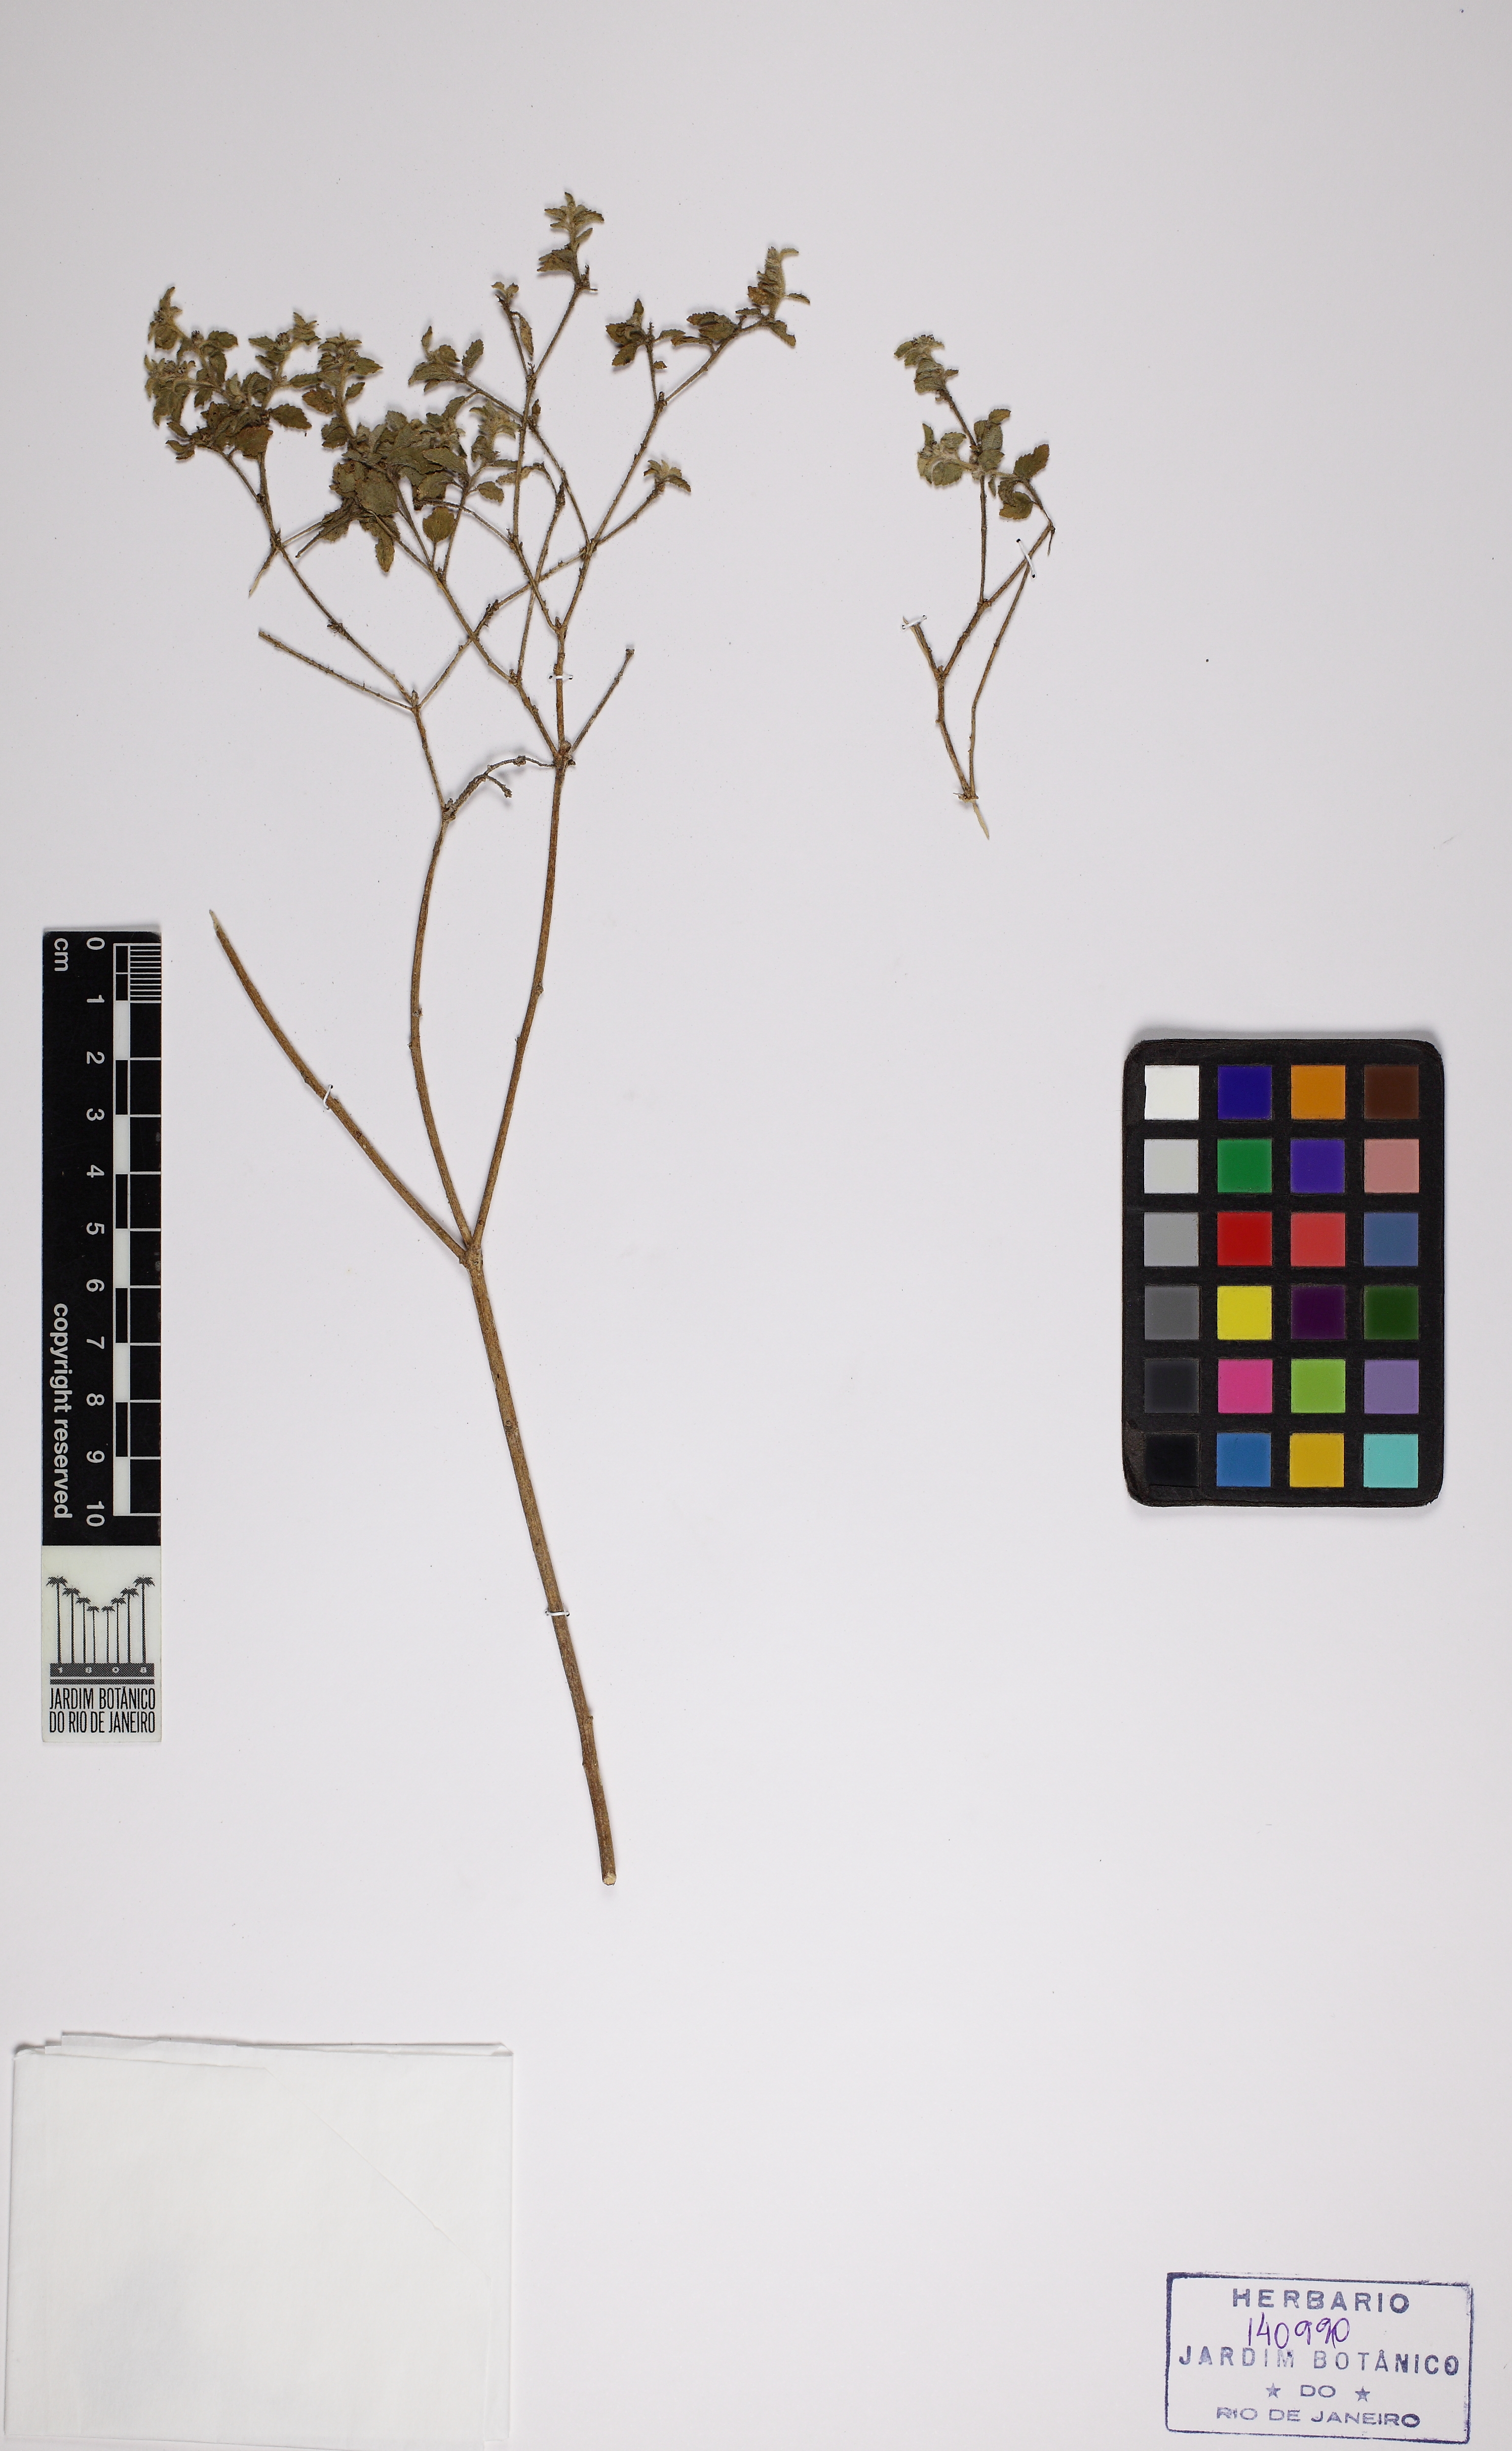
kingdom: Plantae
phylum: Tracheophyta
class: Magnoliopsida
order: Malpighiales
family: Euphorbiaceae
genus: Croton
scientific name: Croton glandulatus
